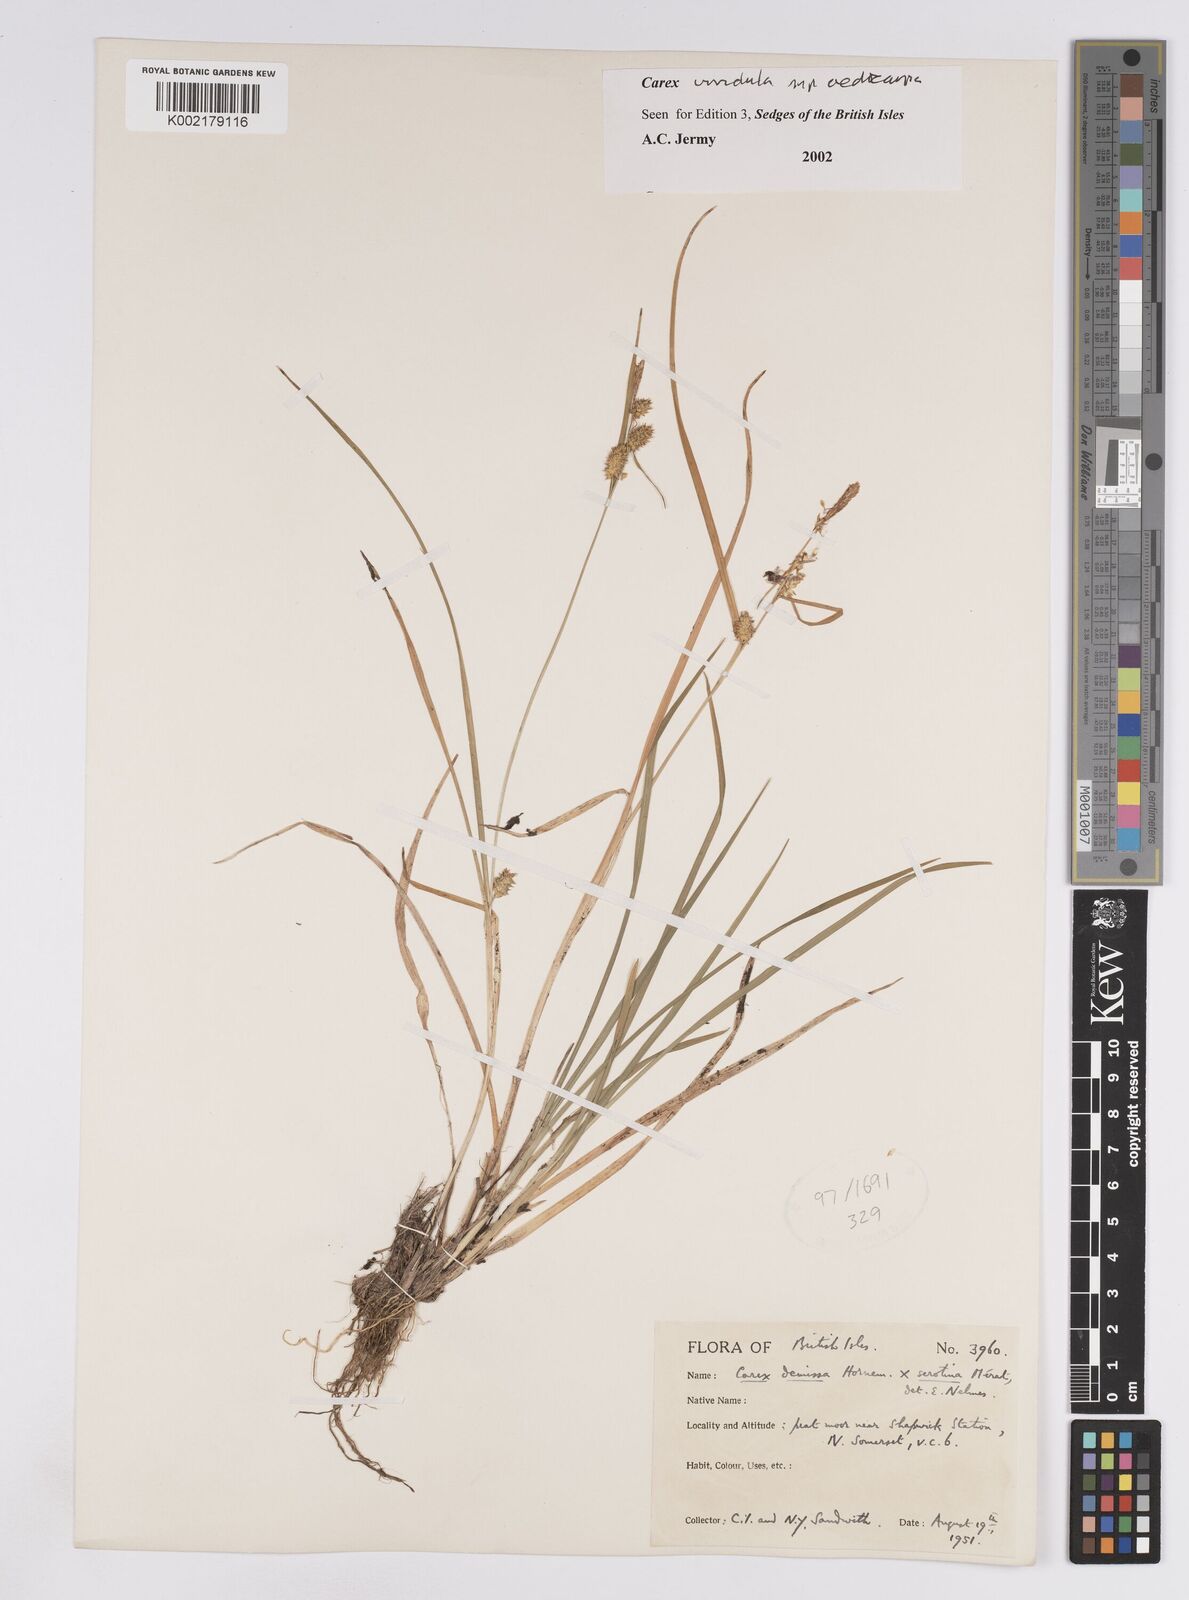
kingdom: Plantae
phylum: Tracheophyta
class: Liliopsida
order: Poales
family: Cyperaceae
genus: Carex
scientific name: Carex demissa
